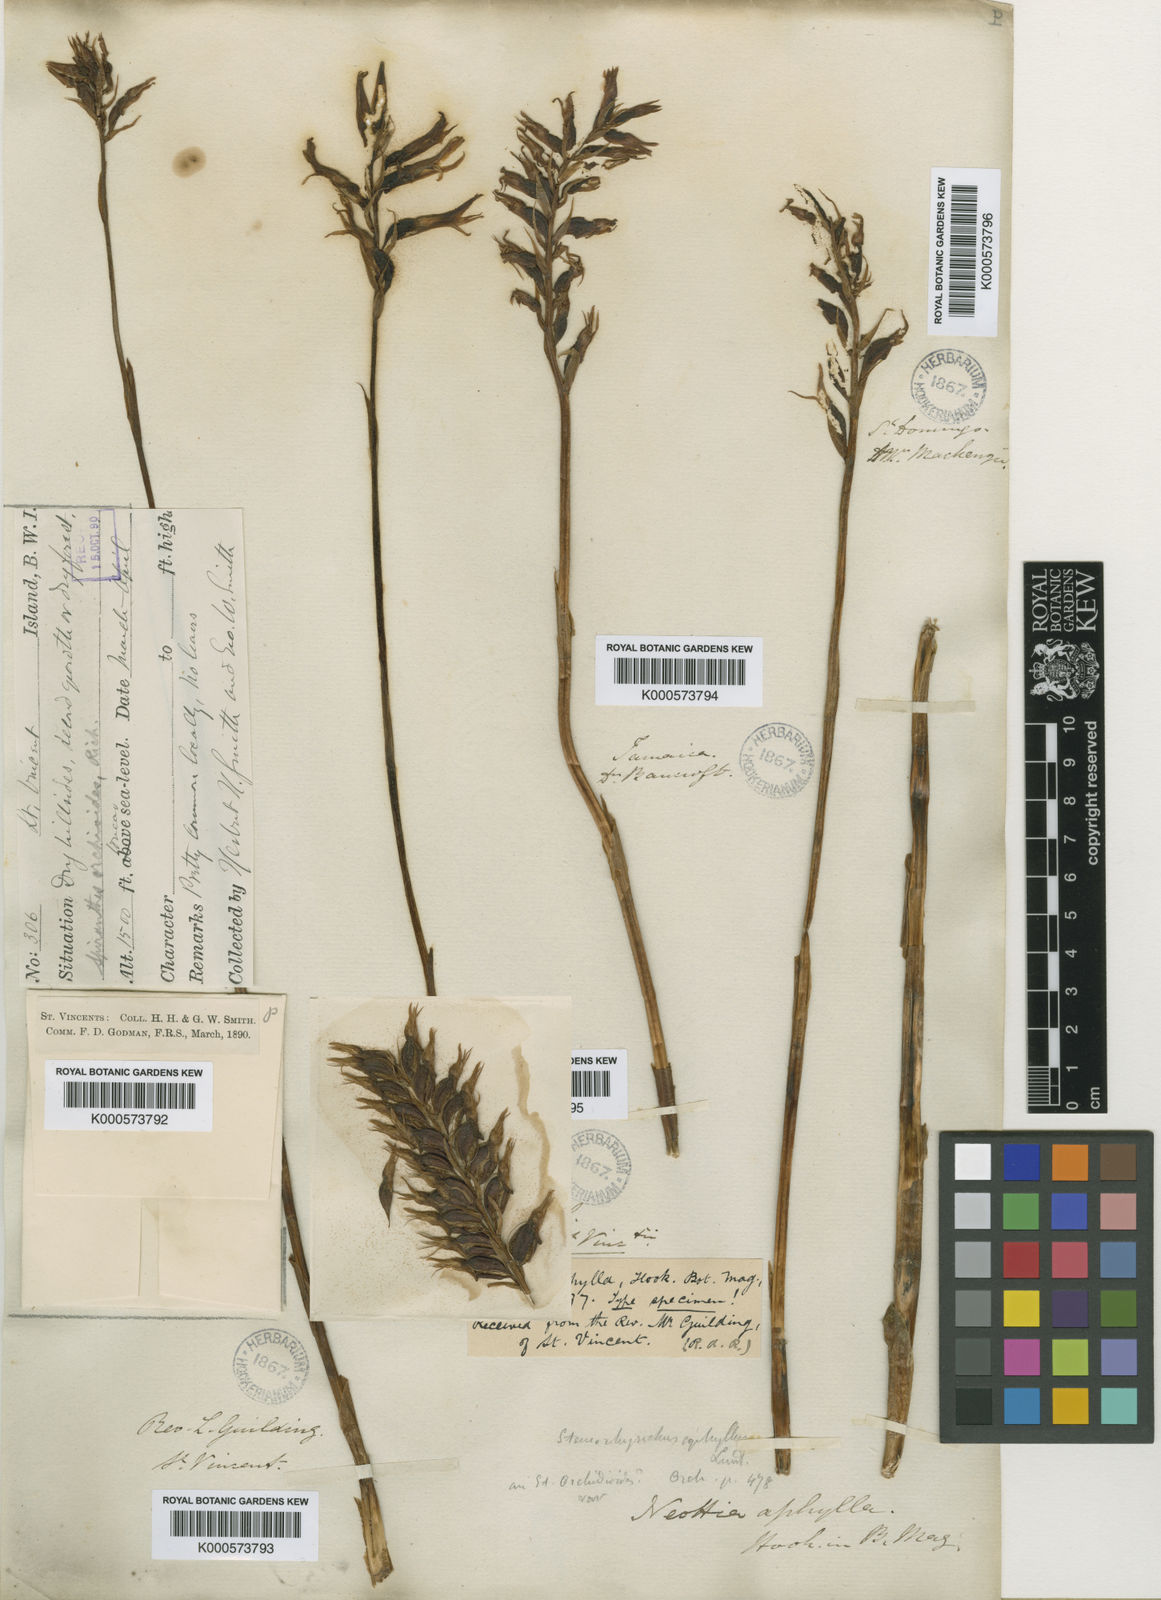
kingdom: Plantae
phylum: Tracheophyta
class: Liliopsida
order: Asparagales
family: Orchidaceae
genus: Sacoila
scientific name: Sacoila
